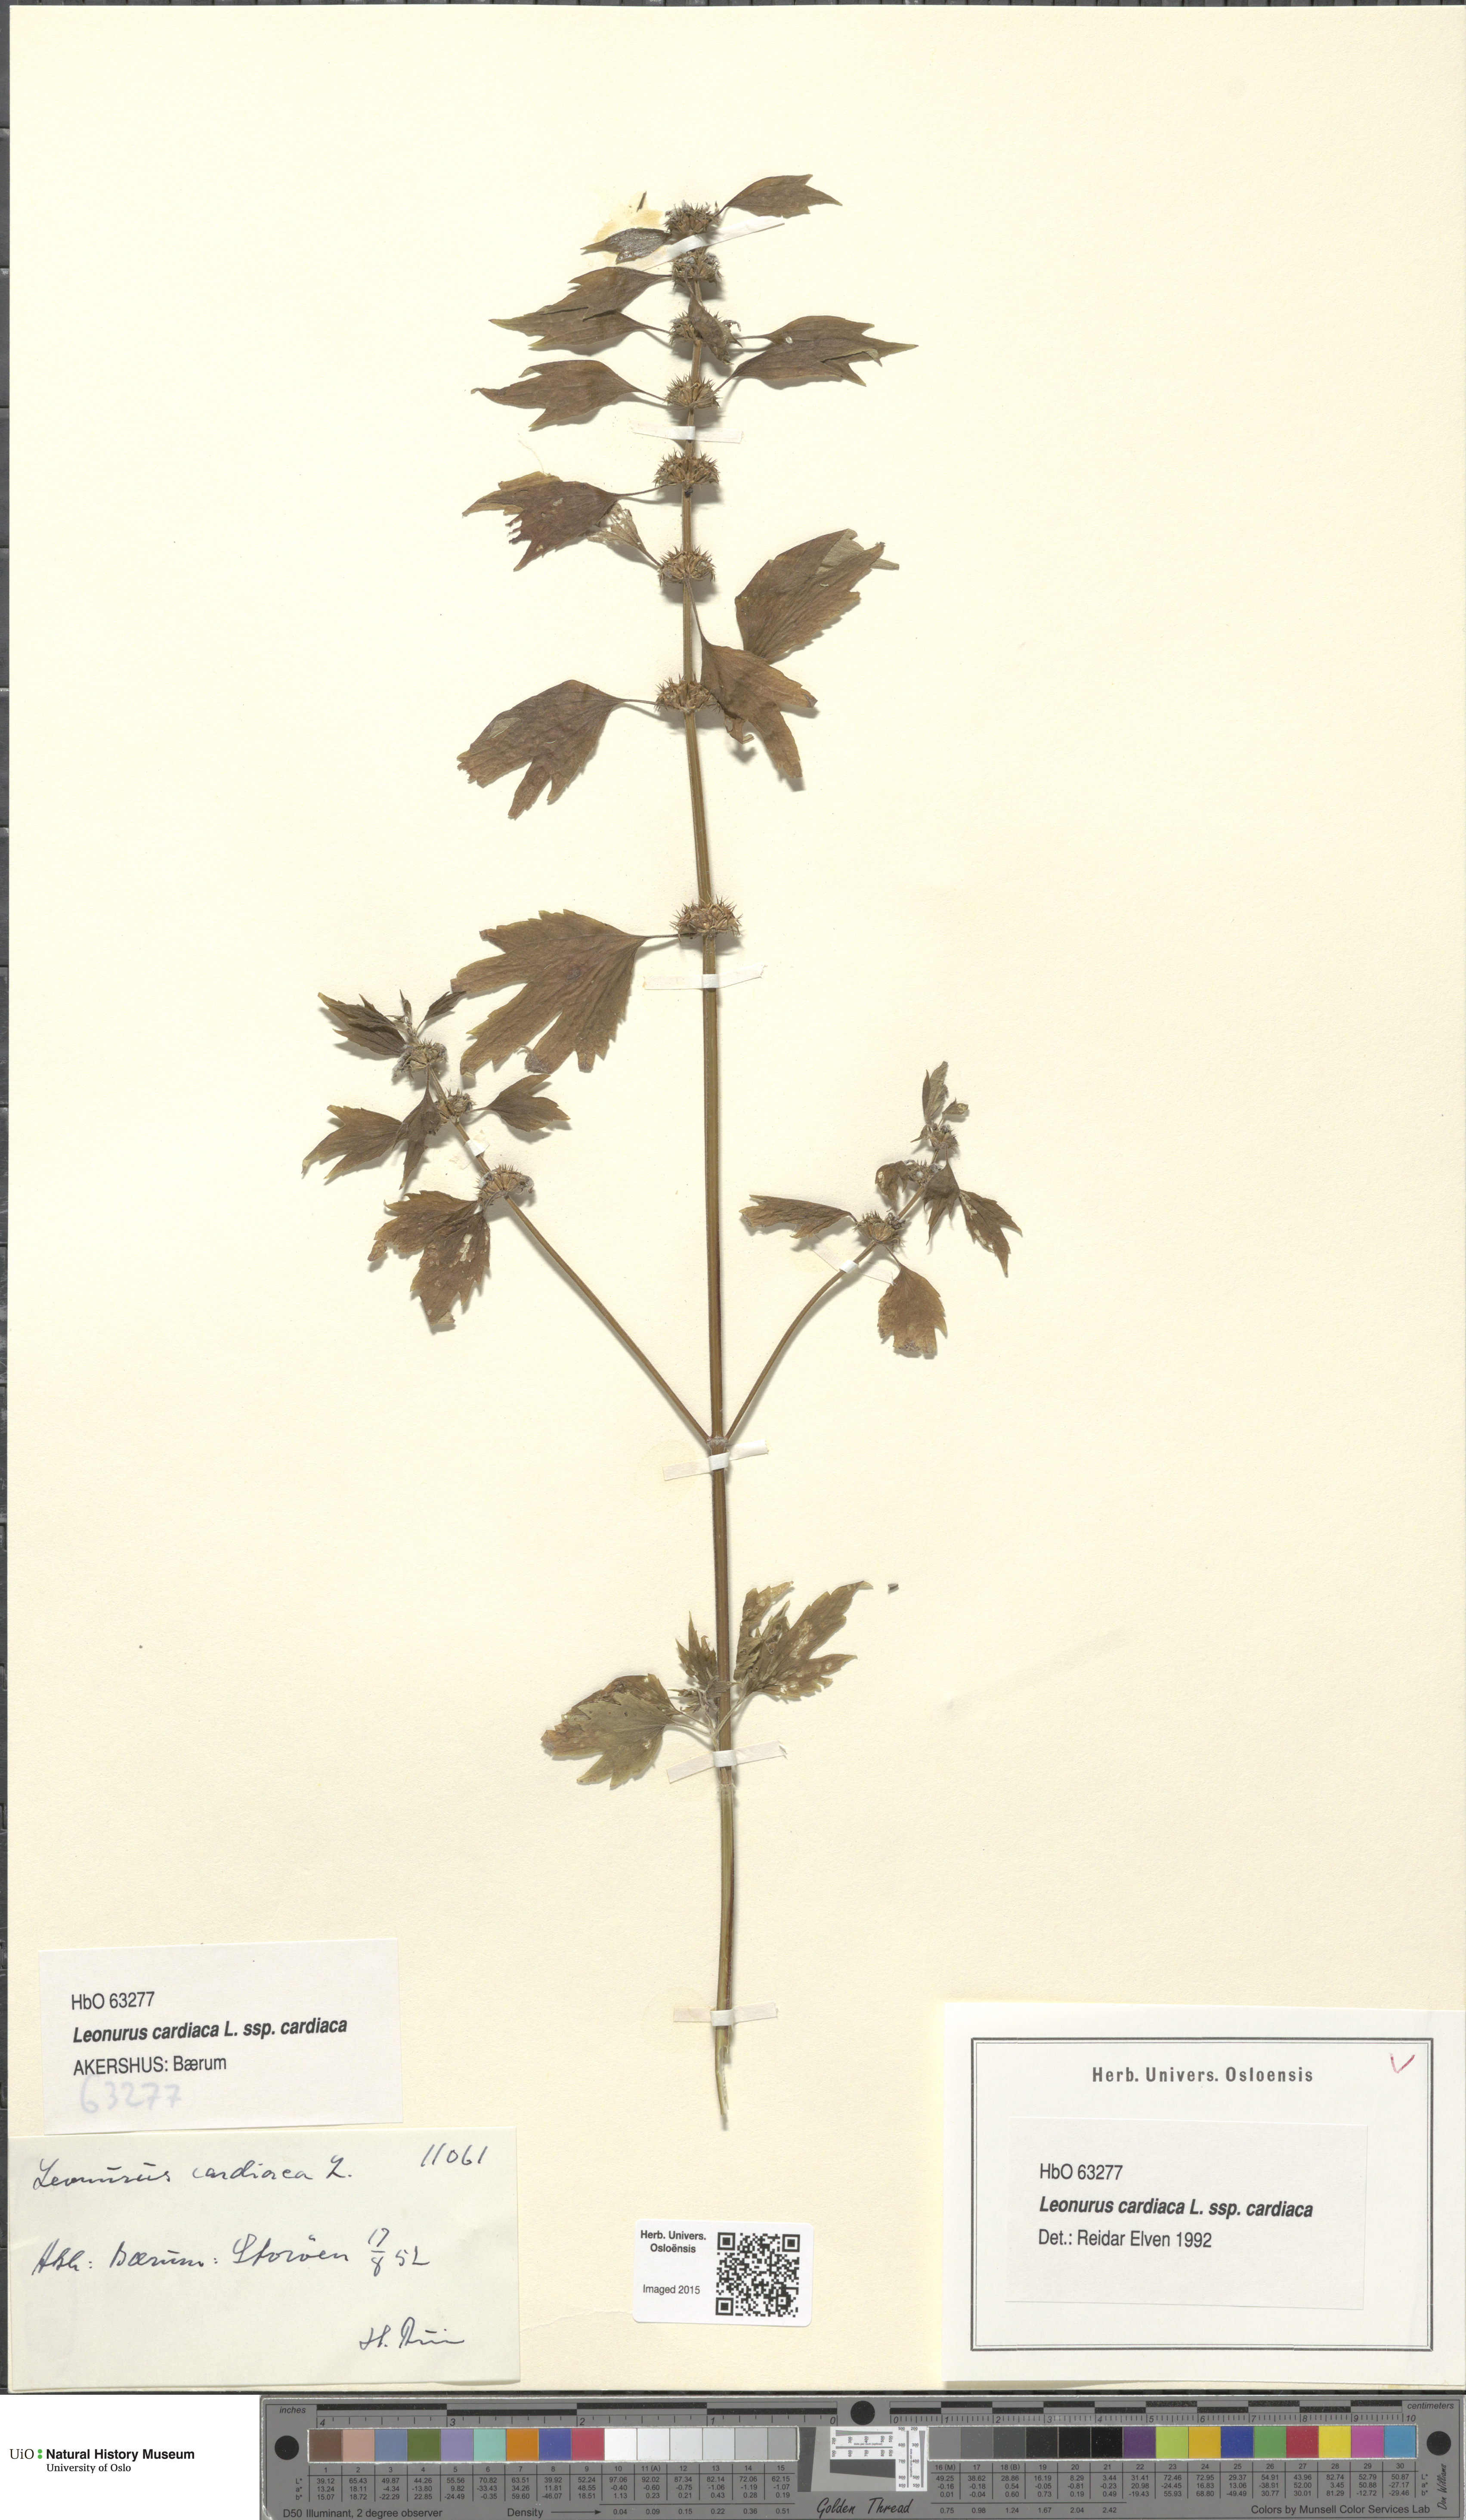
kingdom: Plantae
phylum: Tracheophyta
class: Magnoliopsida
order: Lamiales
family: Lamiaceae
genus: Leonurus
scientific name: Leonurus cardiaca
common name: Motherwort
